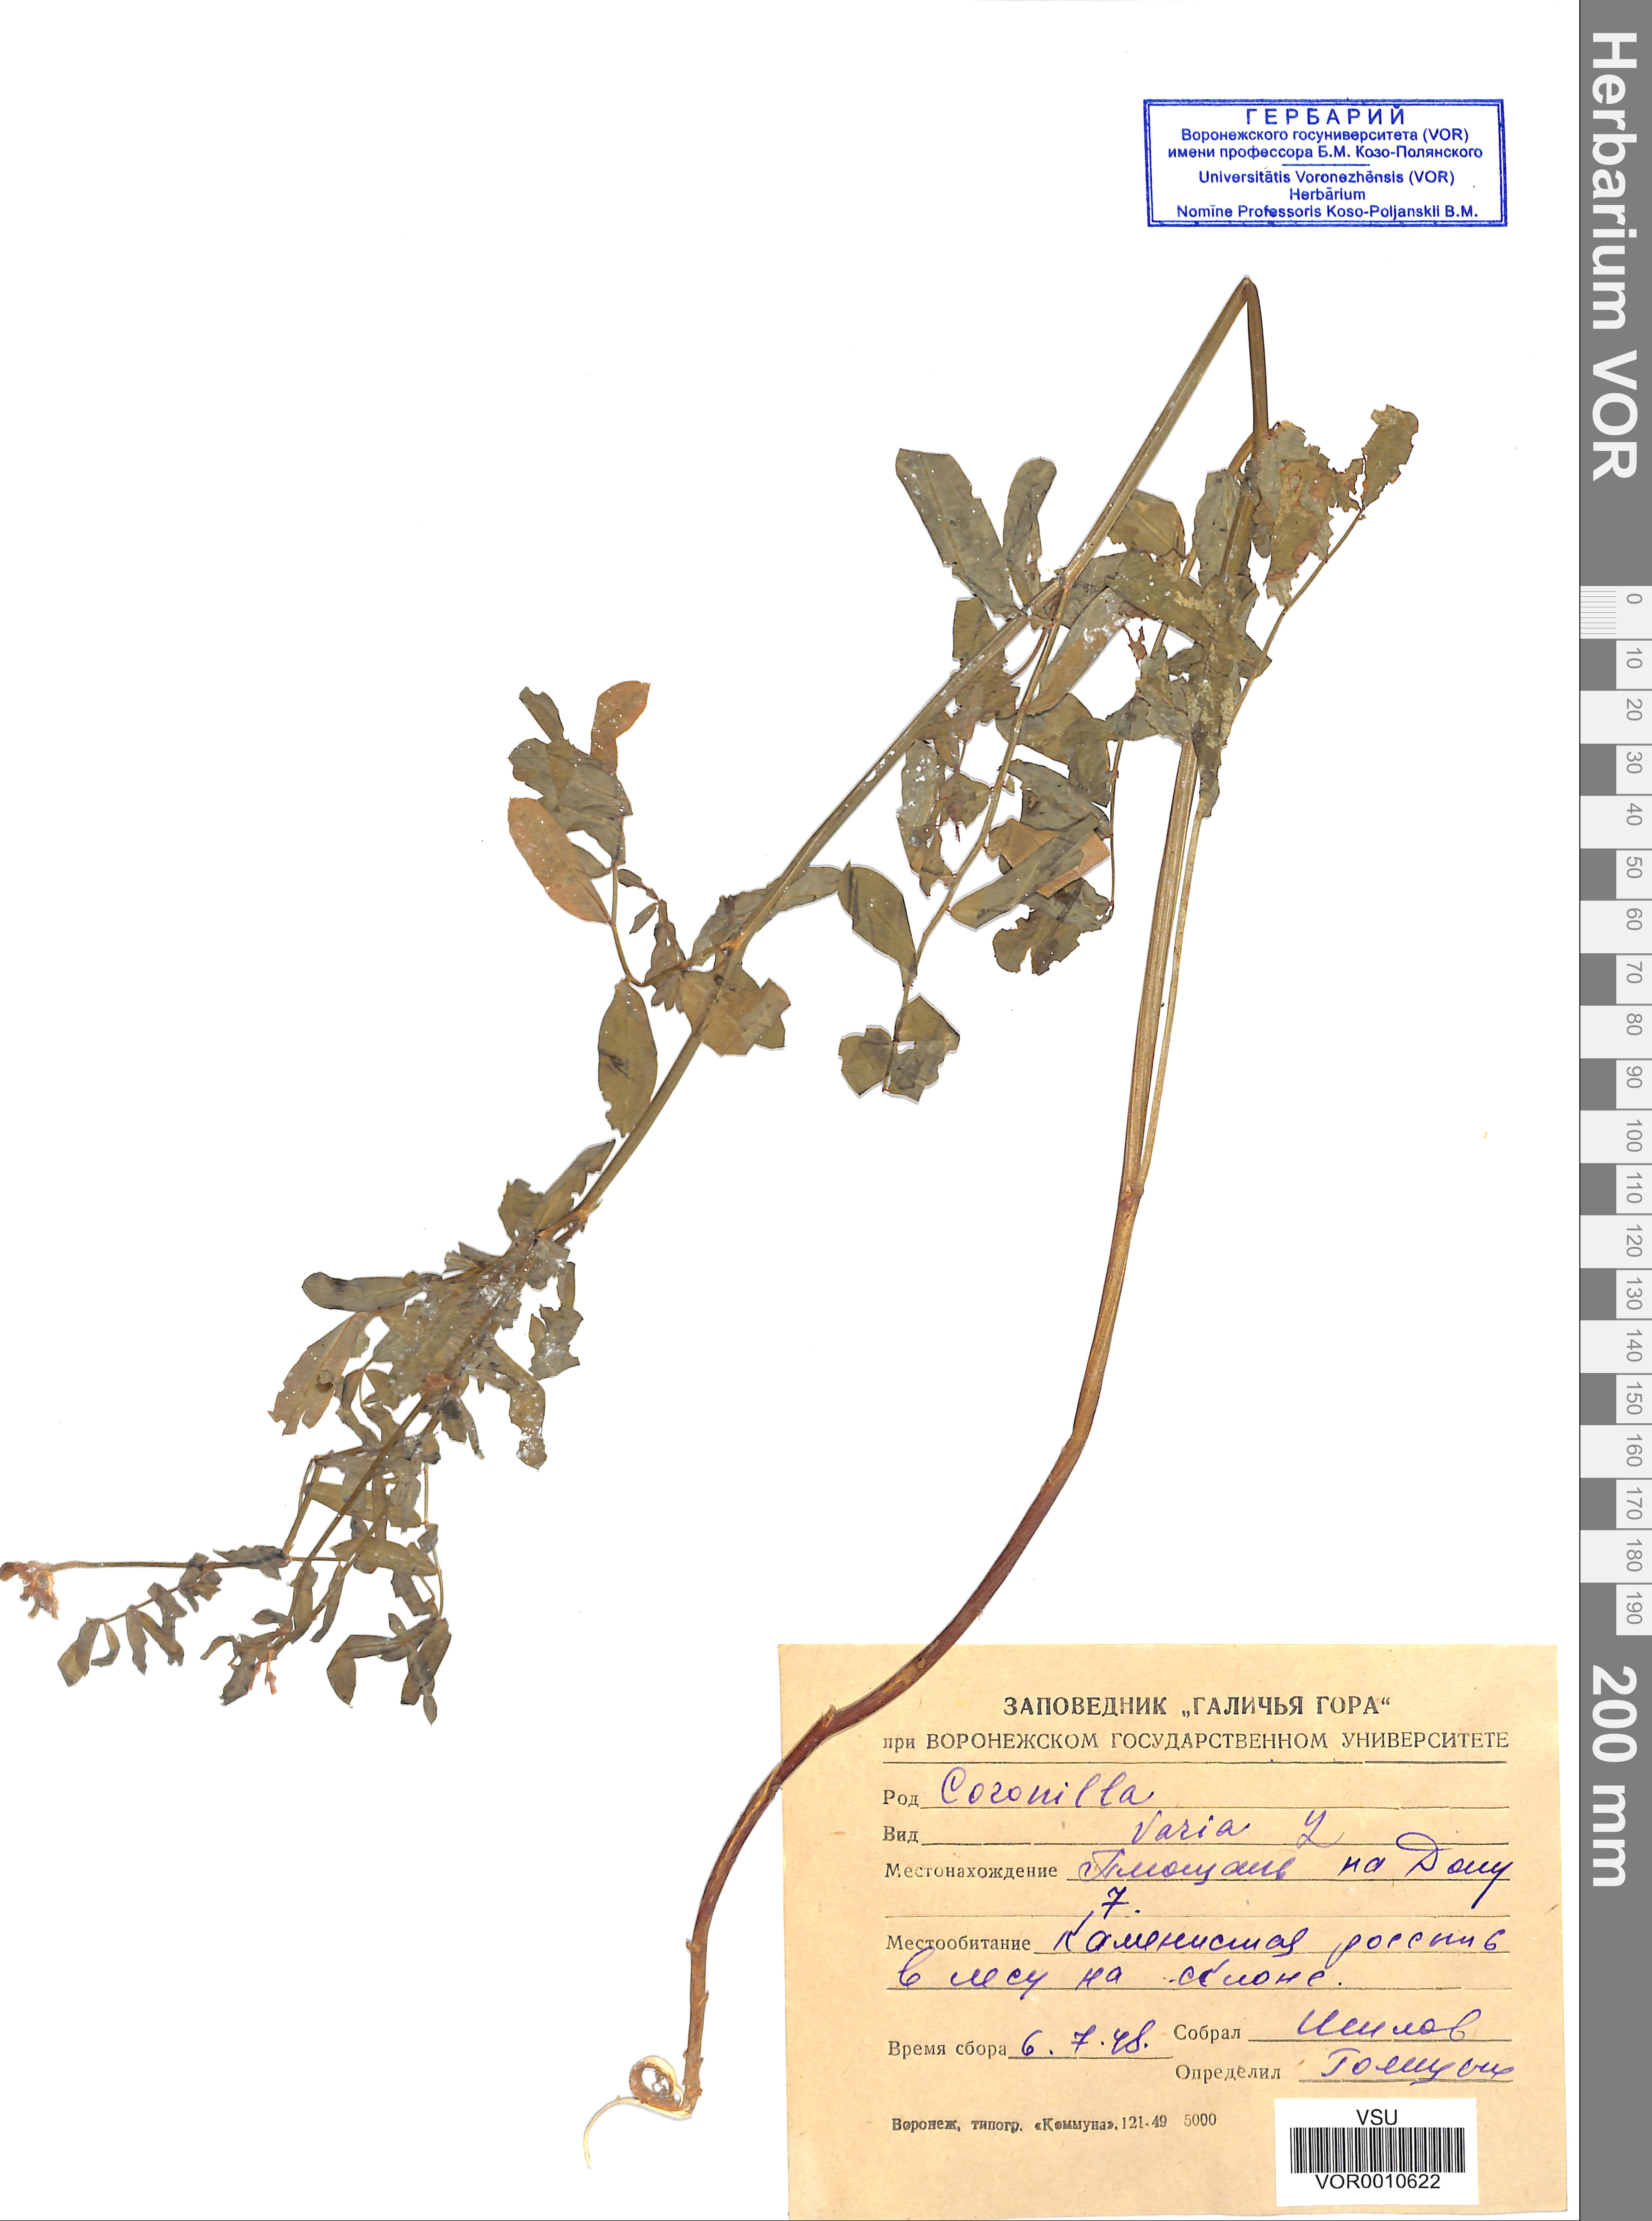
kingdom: Plantae
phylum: Tracheophyta
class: Magnoliopsida
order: Fabales
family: Fabaceae
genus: Coronilla
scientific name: Coronilla varia
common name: Crownvetch
